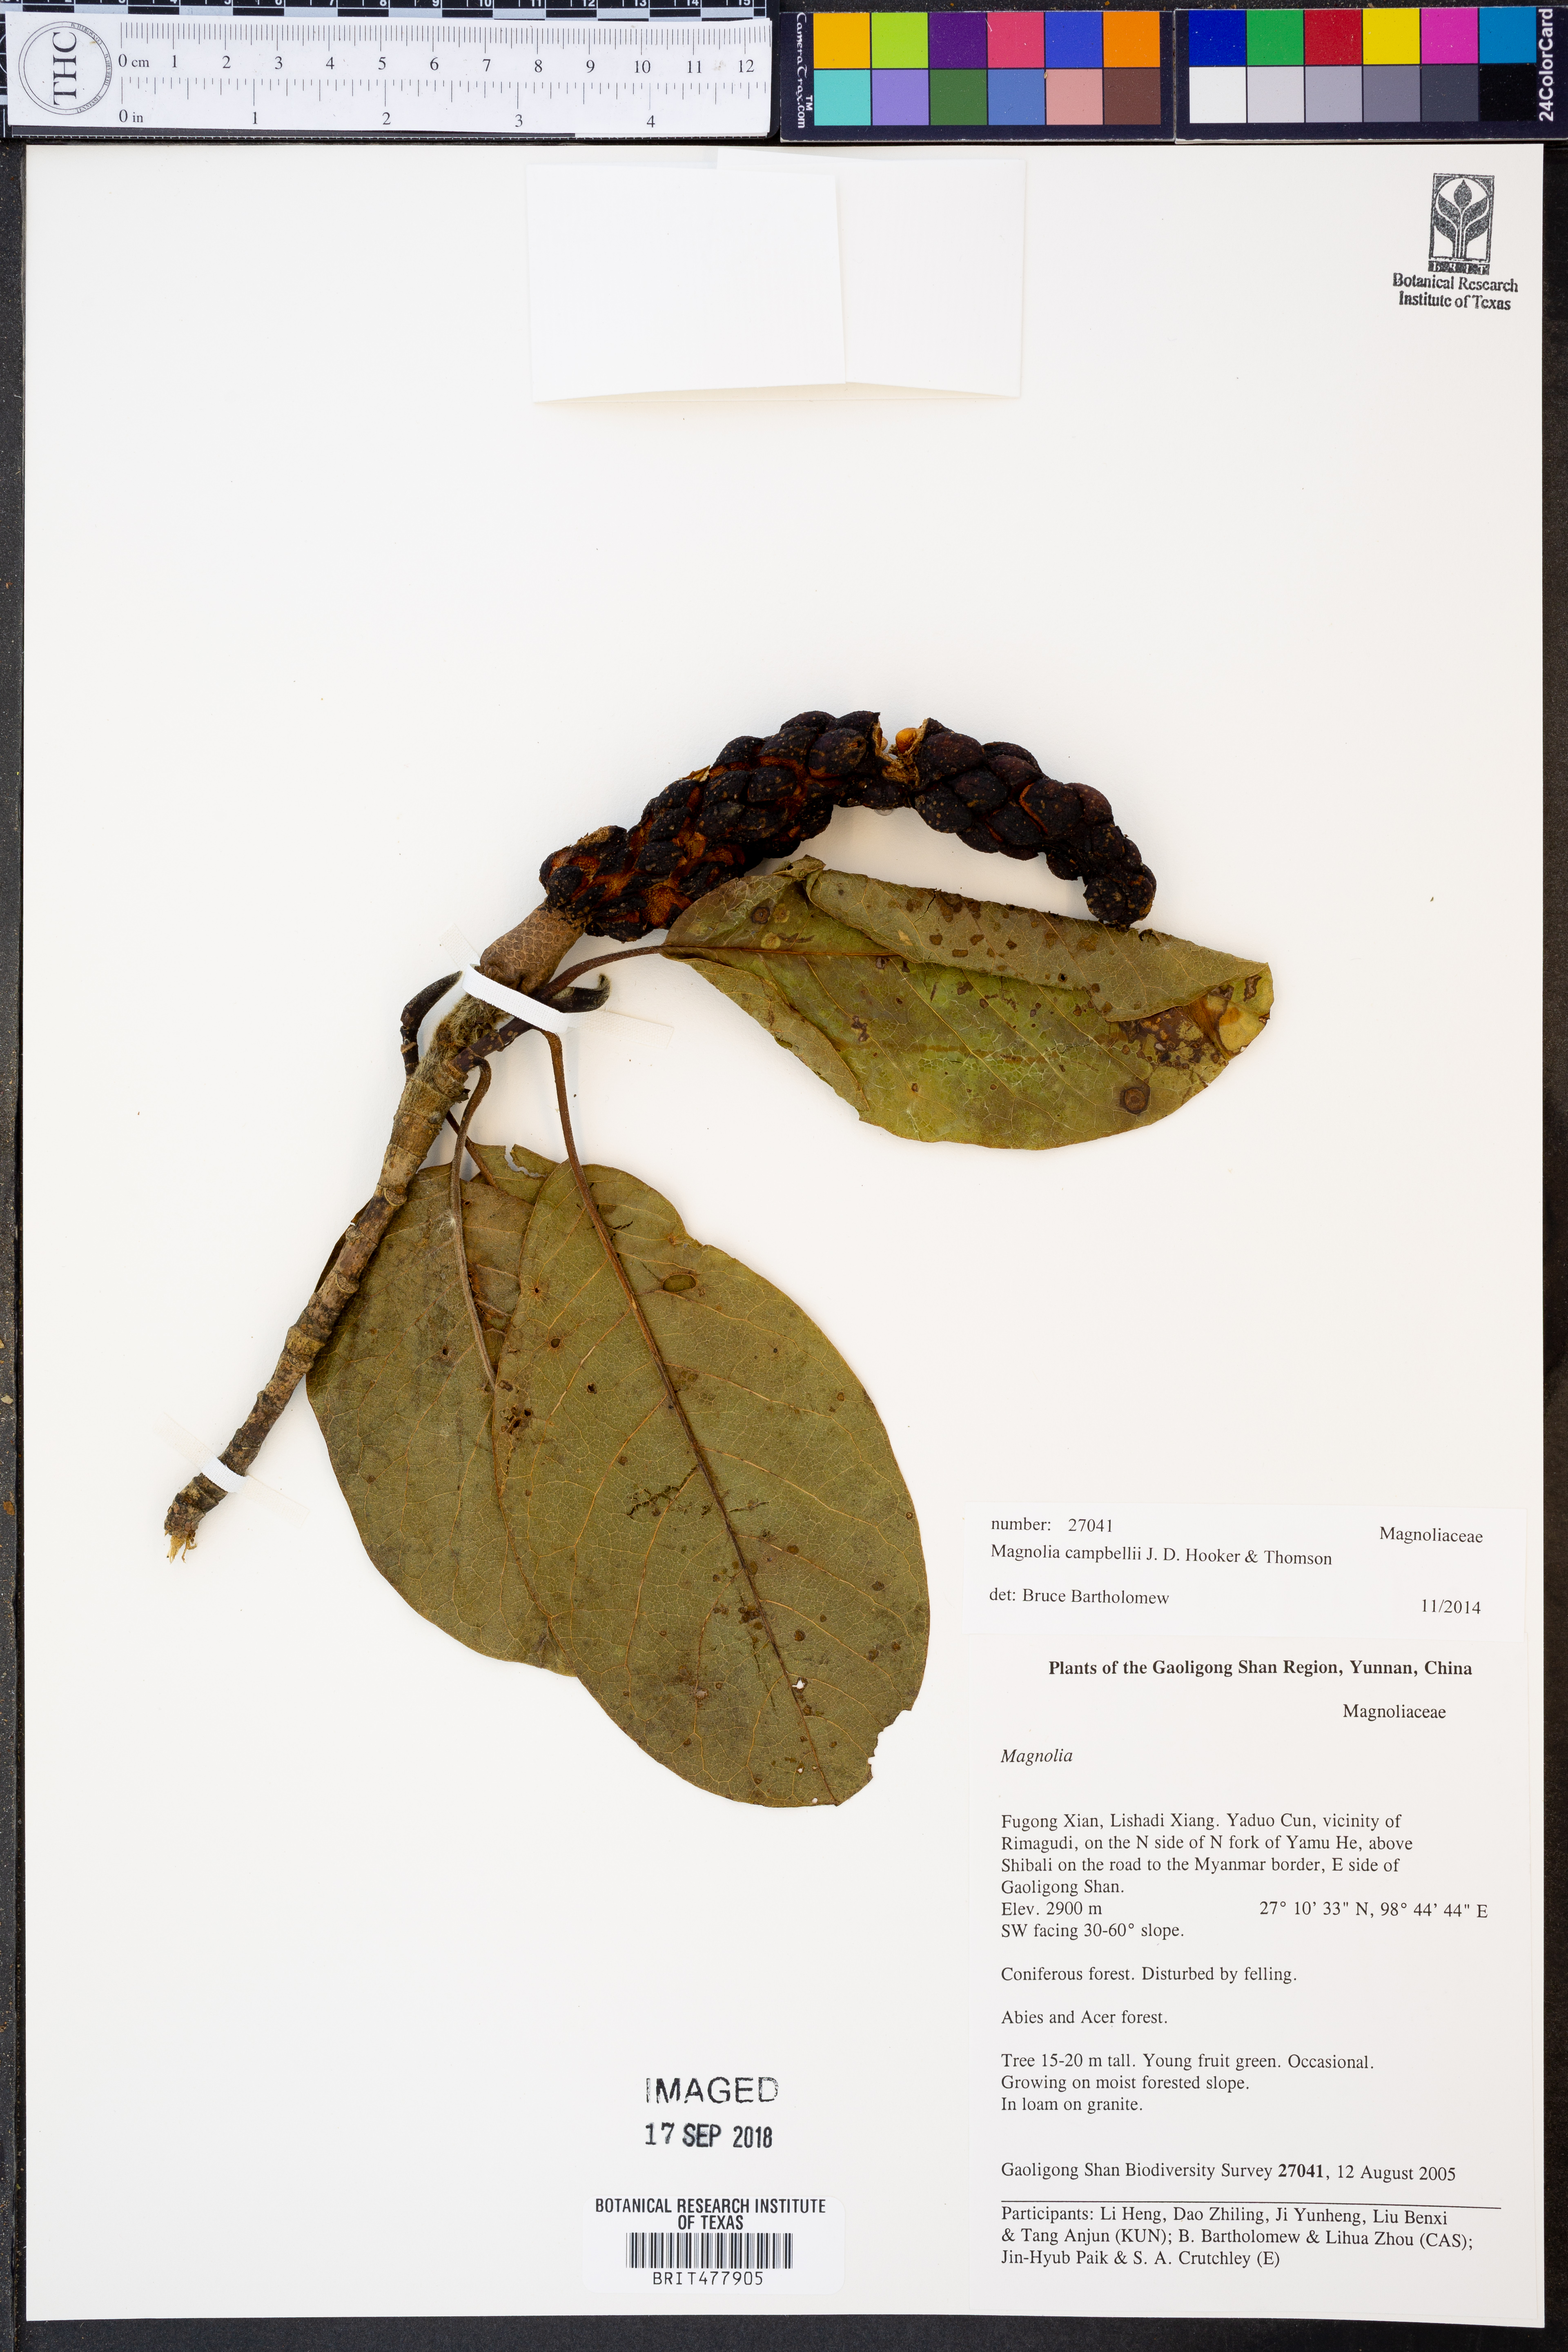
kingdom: Plantae
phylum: Tracheophyta
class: Magnoliopsida
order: Magnoliales
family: Magnoliaceae
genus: Magnolia
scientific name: Magnolia campbellii
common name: Campbell's magnolia
